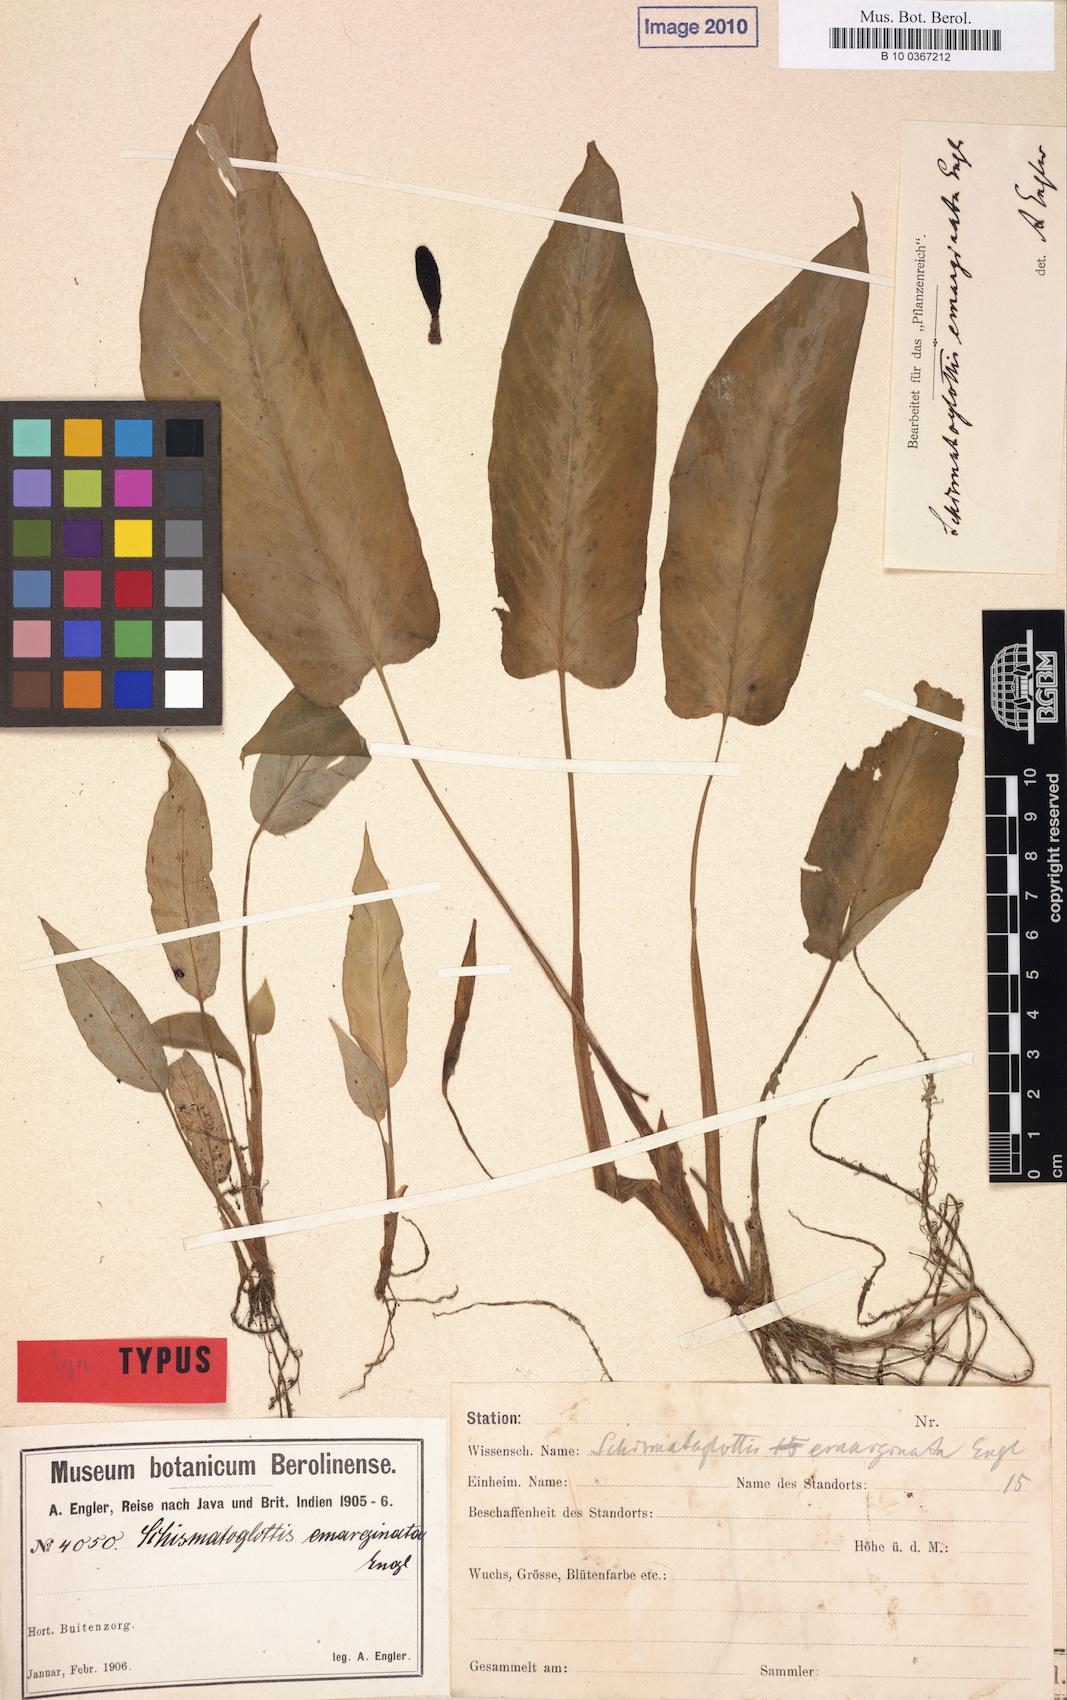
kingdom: Plantae
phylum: Tracheophyta
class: Liliopsida
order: Alismatales
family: Araceae
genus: Schismatoglottis
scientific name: Schismatoglottis emarginata
